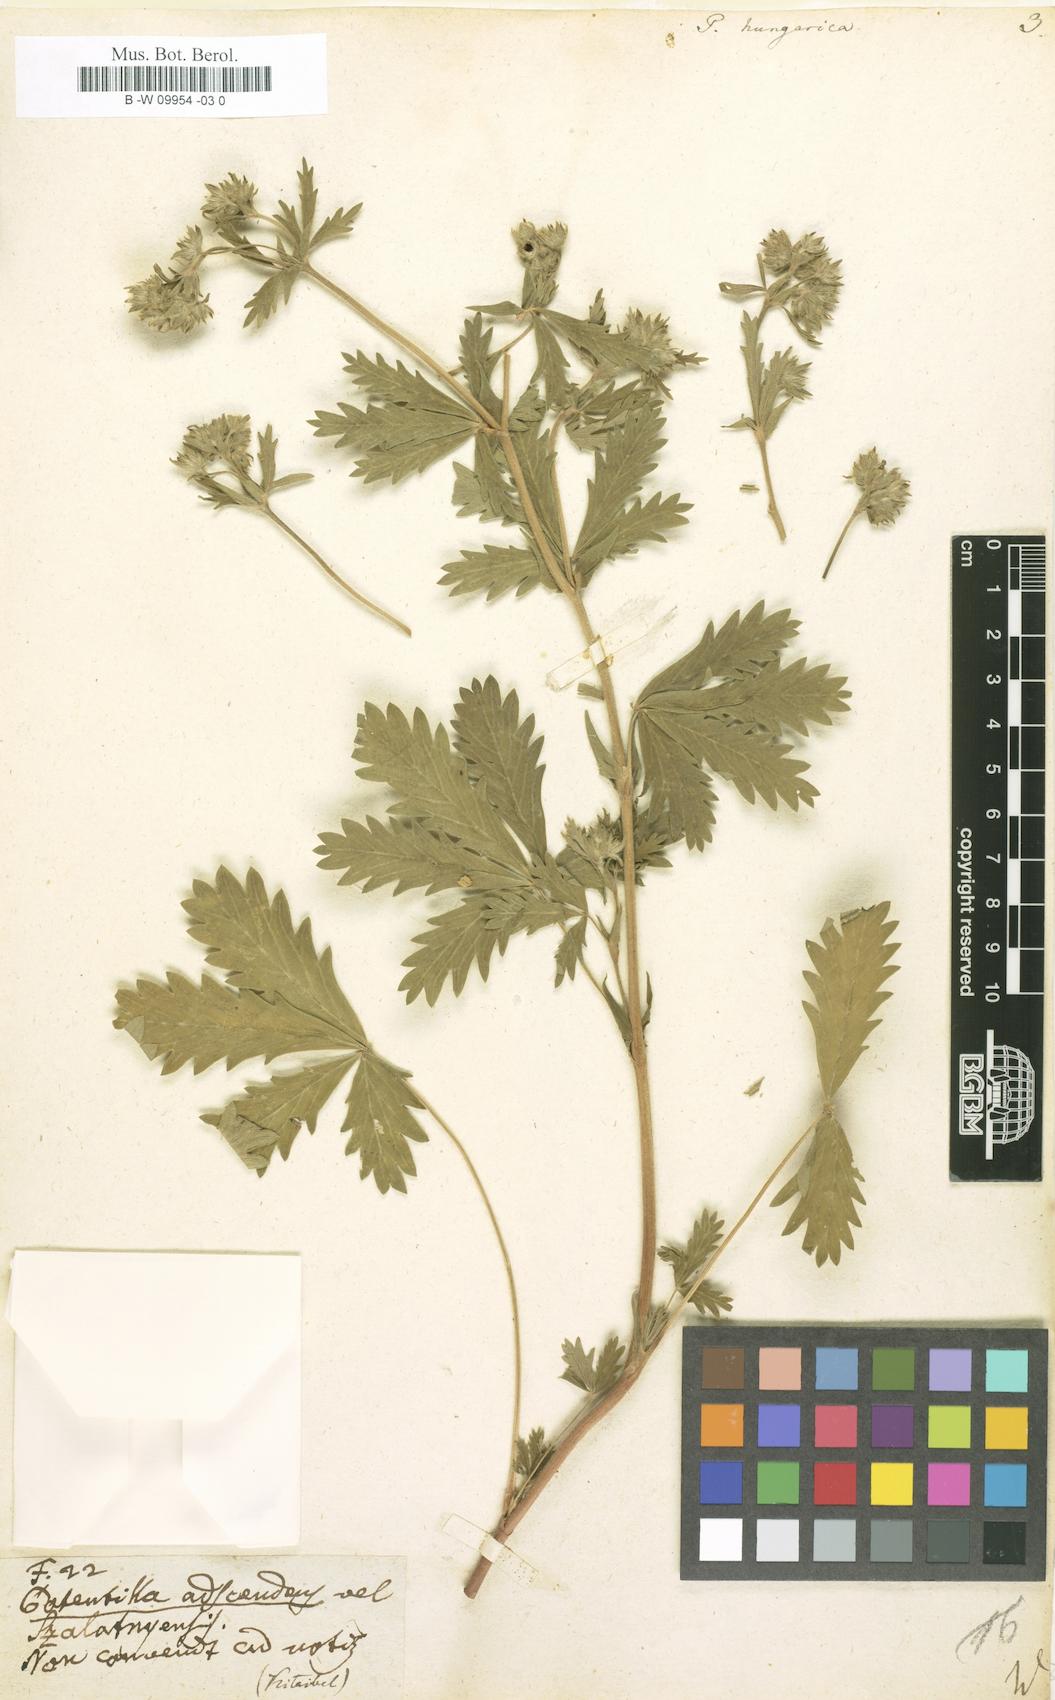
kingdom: Plantae
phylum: Tracheophyta
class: Magnoliopsida
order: Rosales
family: Rosaceae
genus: Potentilla
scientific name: Potentilla inclinata
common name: Grey cinquefoil
